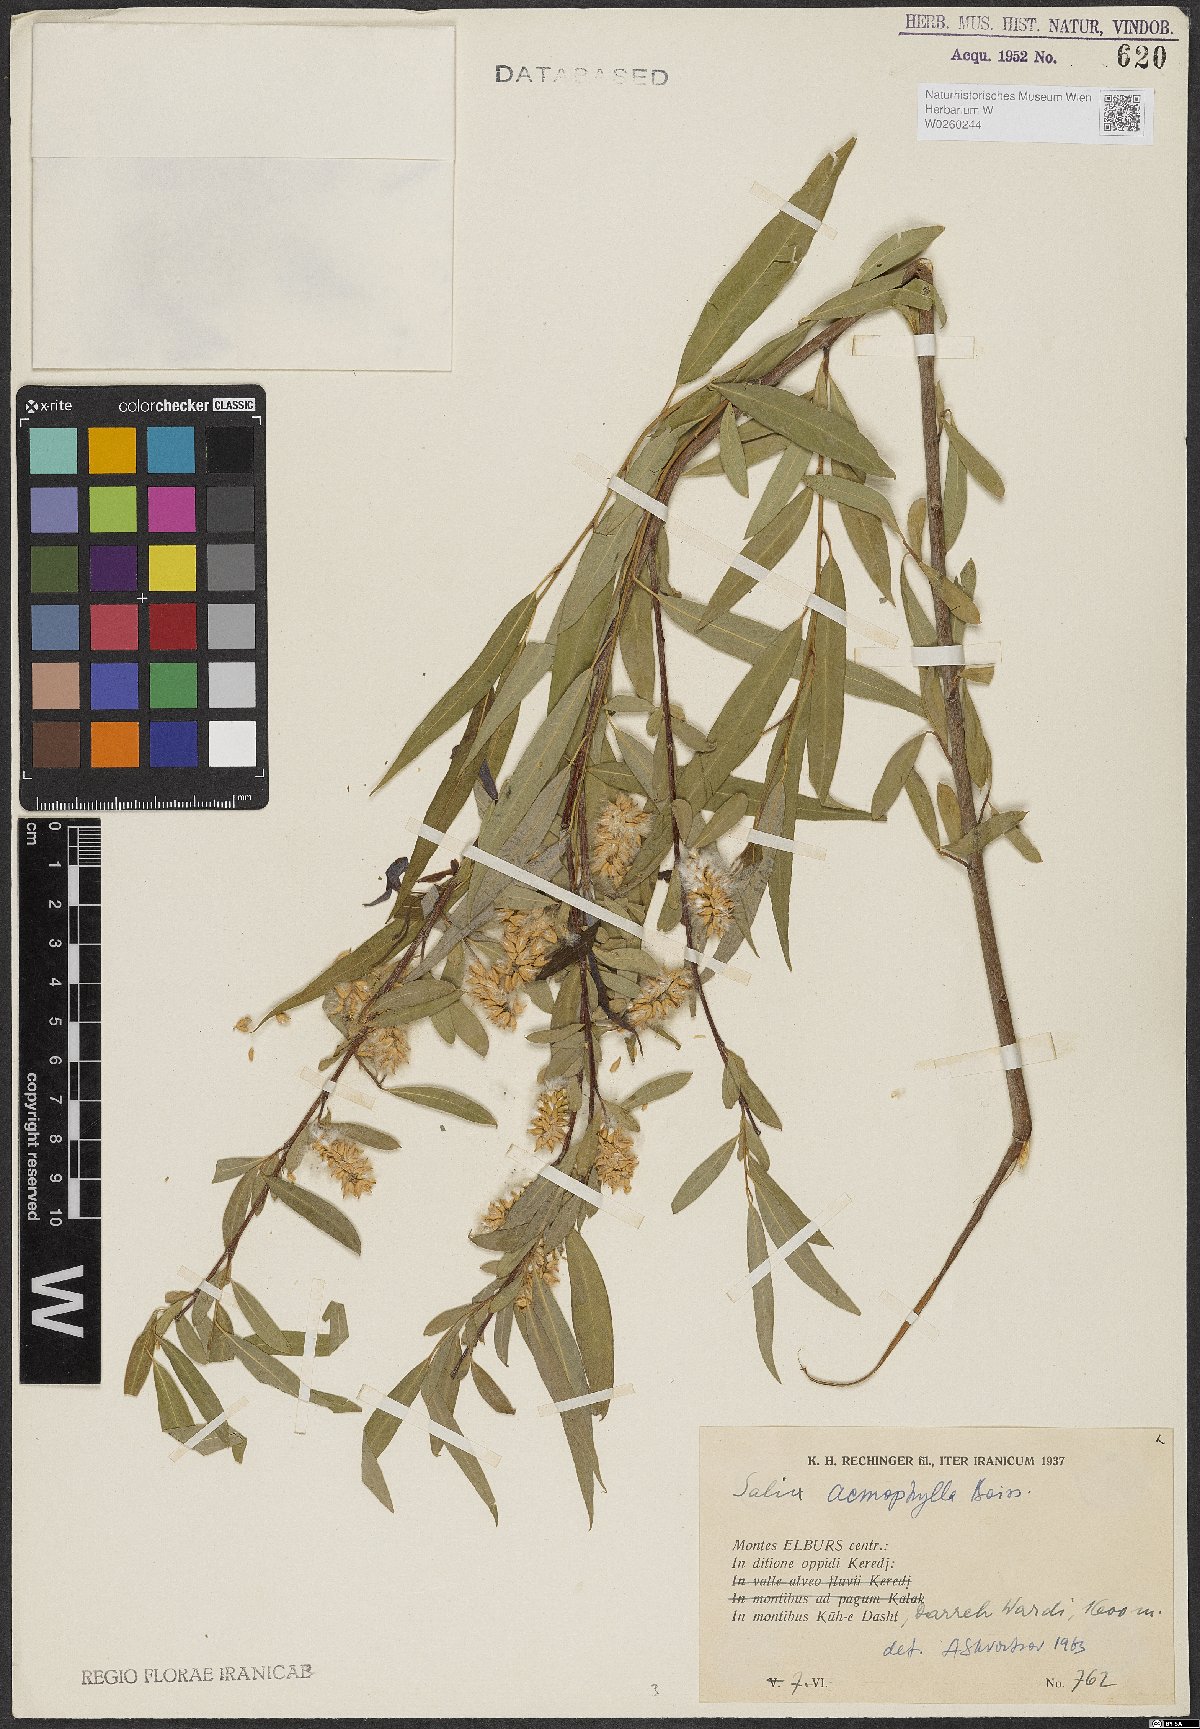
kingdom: Plantae
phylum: Tracheophyta
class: Magnoliopsida
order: Malpighiales
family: Salicaceae
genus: Salix
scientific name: Salix acmophylla
